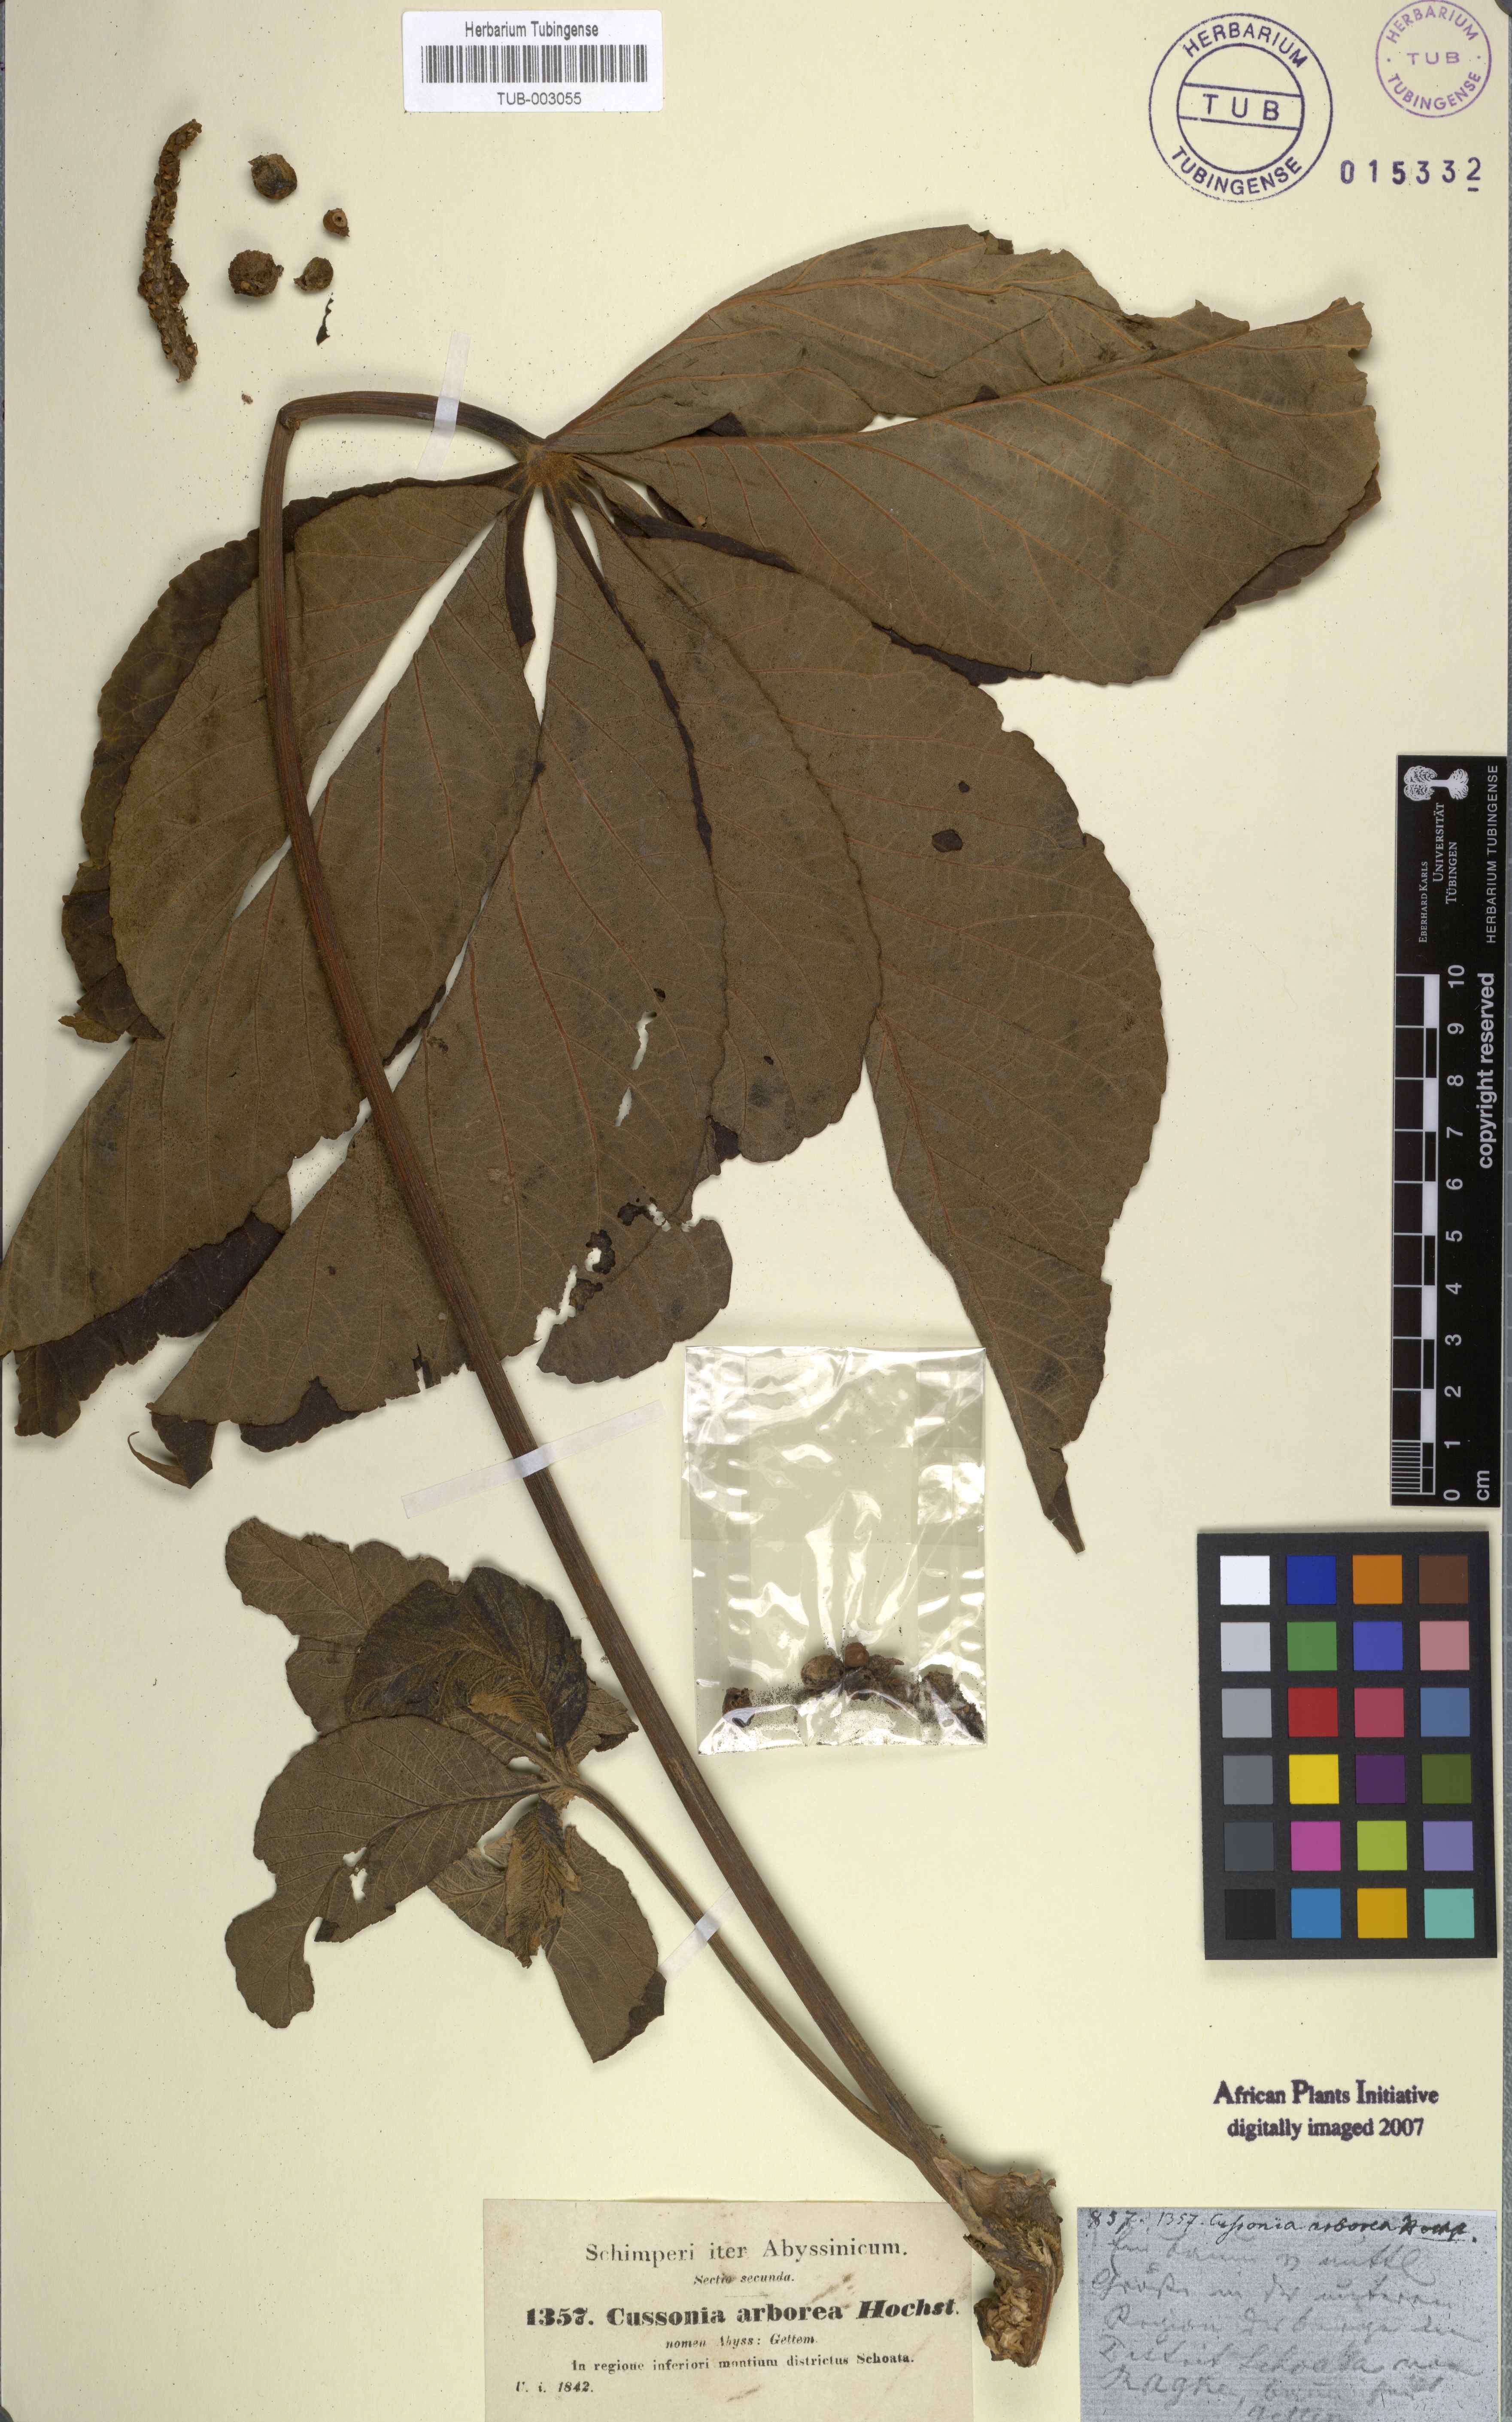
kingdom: Plantae
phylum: Tracheophyta
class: Magnoliopsida
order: Apiales
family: Araliaceae
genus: Cussonia
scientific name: Cussonia arborea
